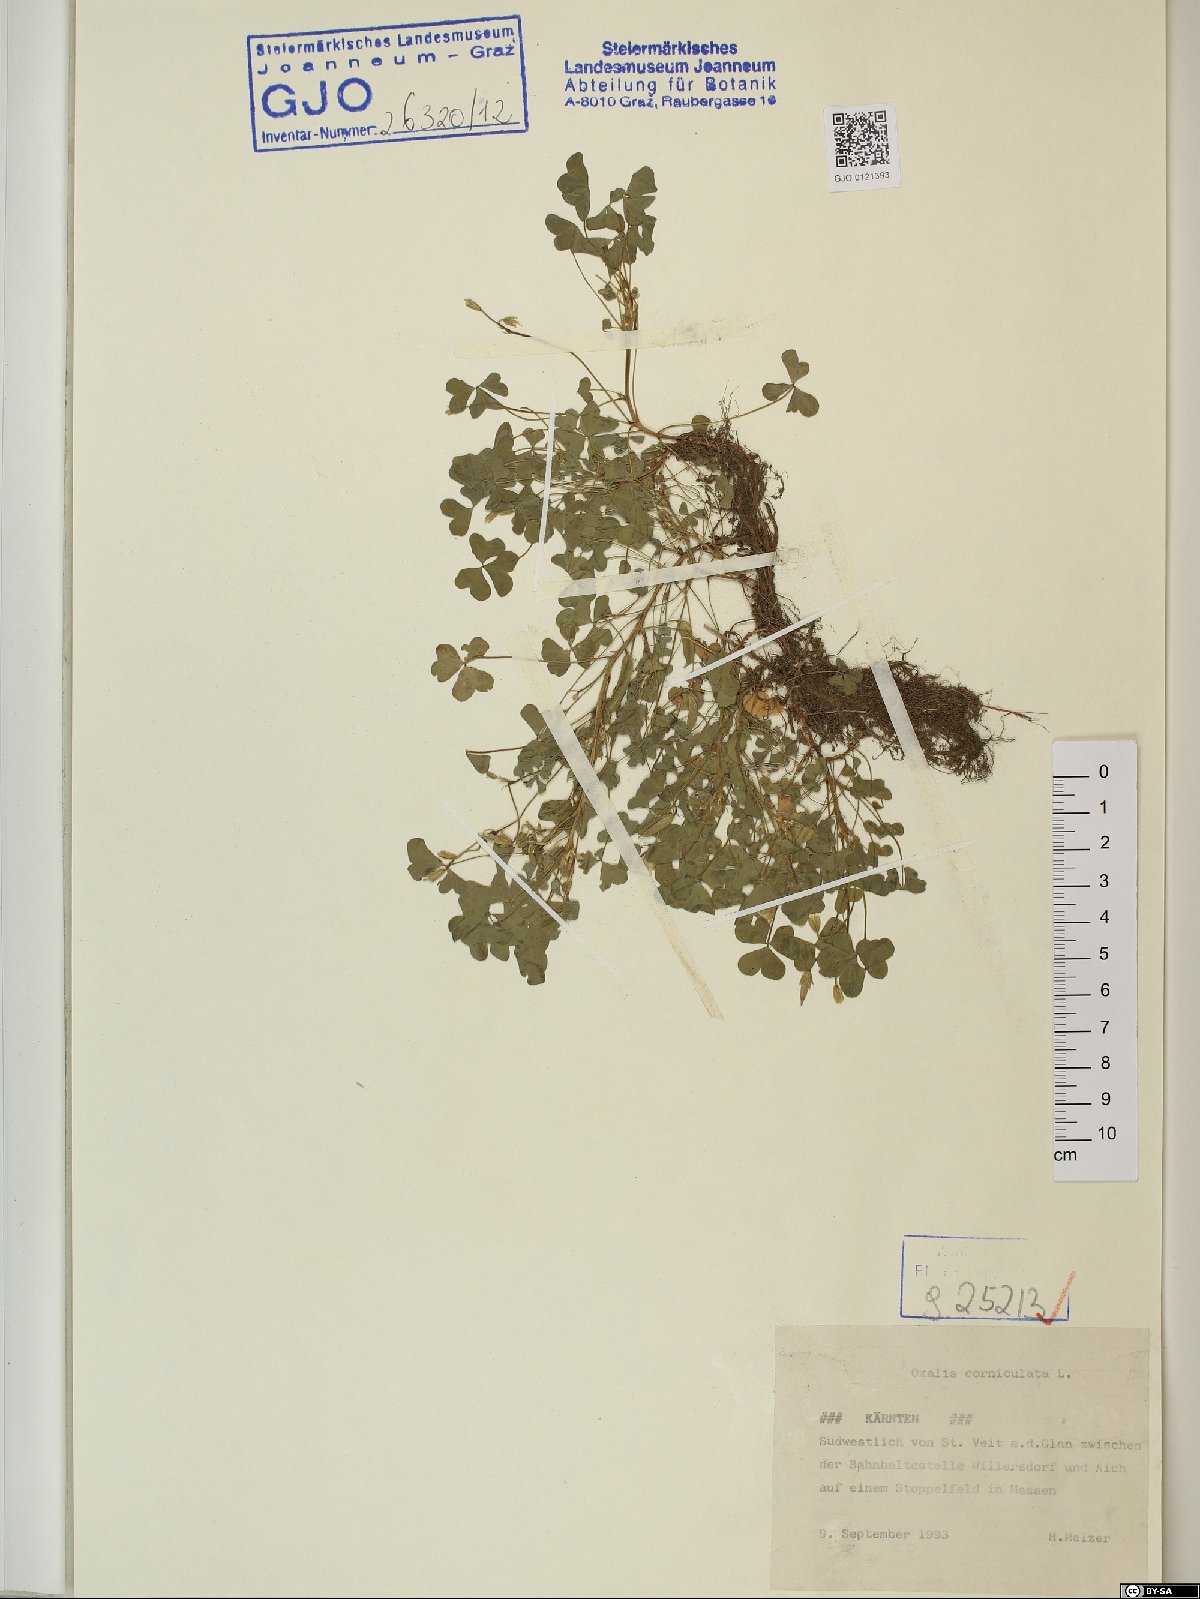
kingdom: Plantae
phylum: Tracheophyta
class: Magnoliopsida
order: Oxalidales
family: Oxalidaceae
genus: Oxalis
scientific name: Oxalis corniculata
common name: Procumbent yellow-sorrel
